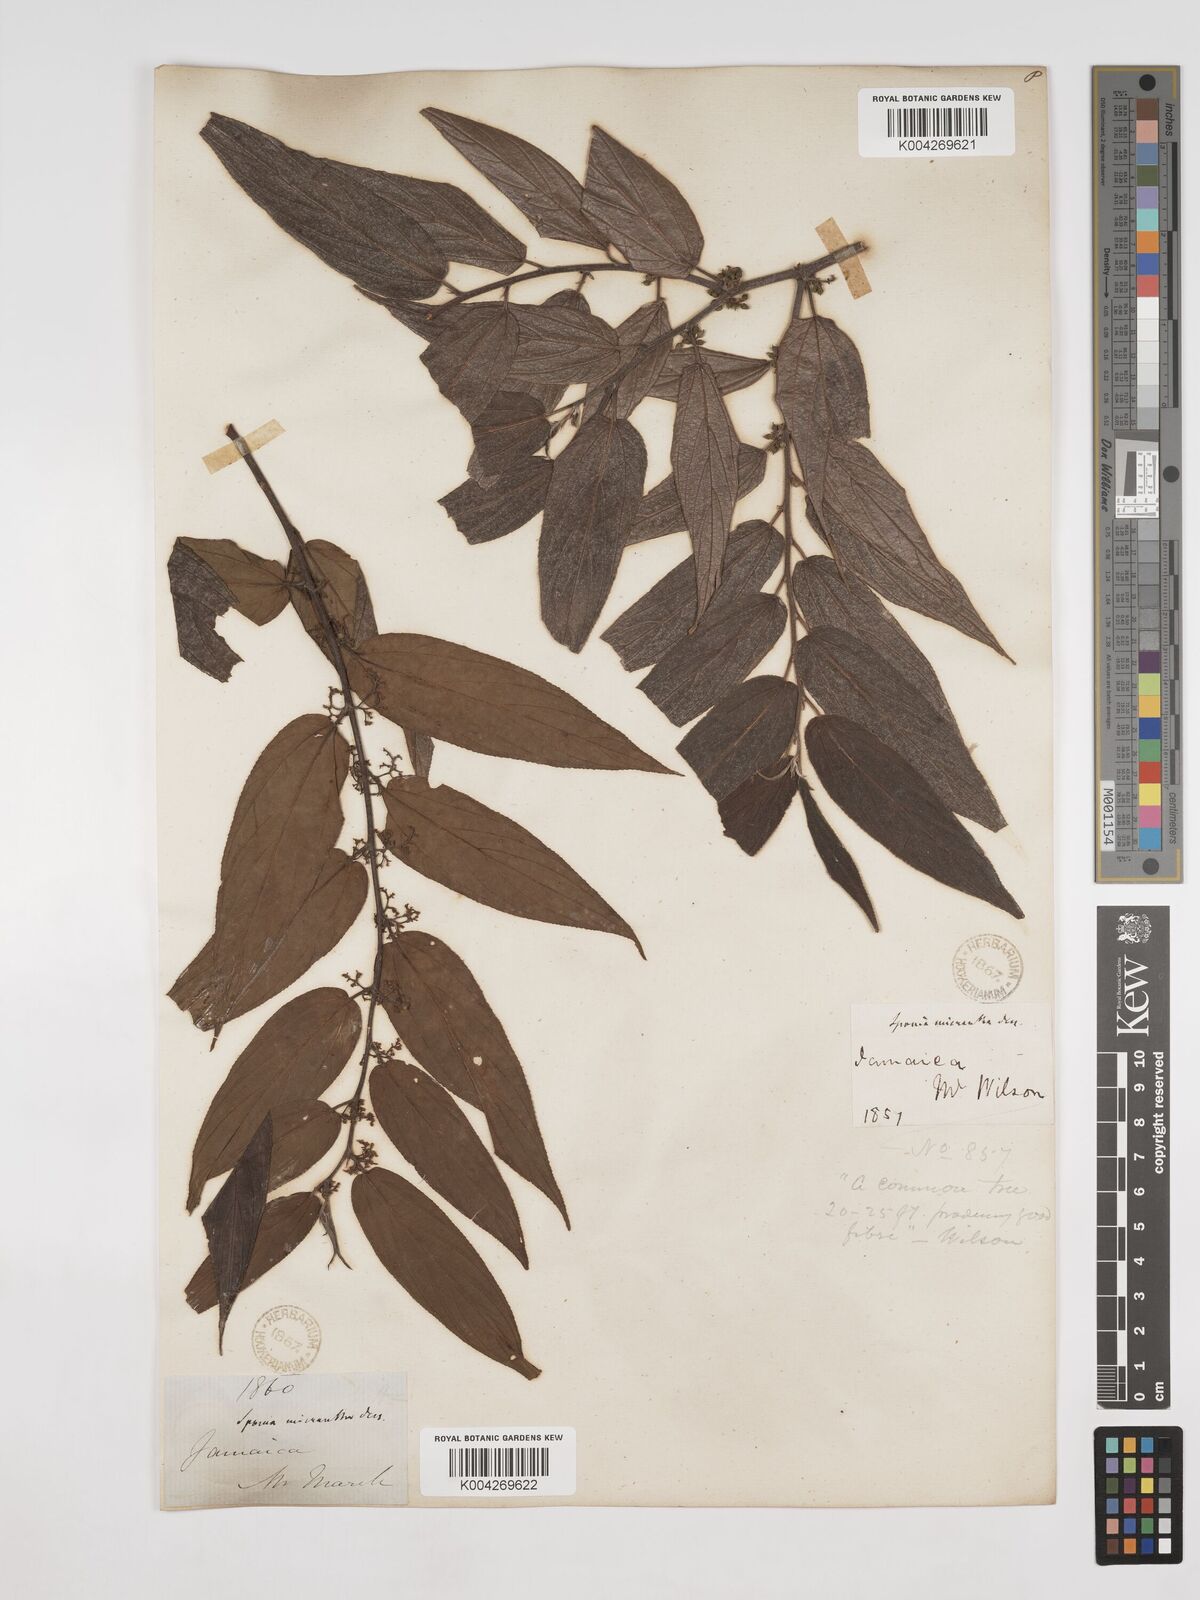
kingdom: Plantae
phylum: Tracheophyta
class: Magnoliopsida
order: Rosales
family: Cannabaceae
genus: Trema
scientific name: Trema micranthum
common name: Jamaican nettletree
